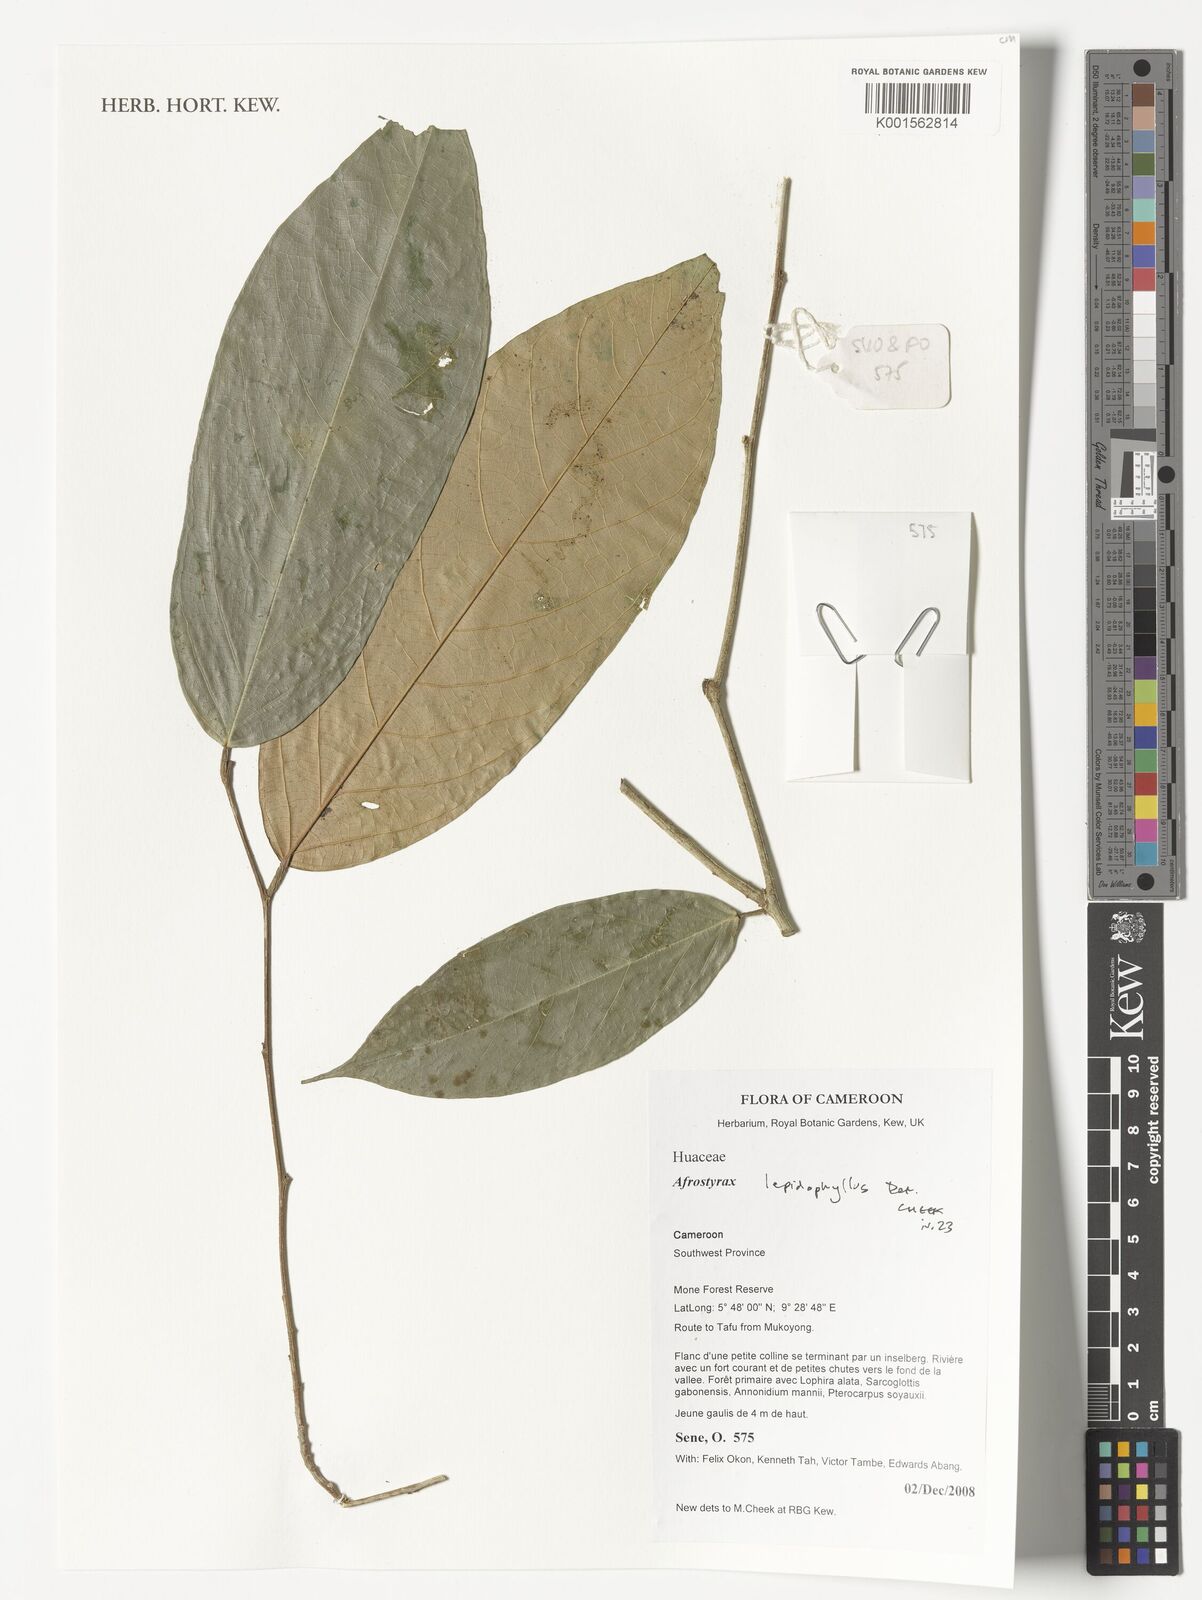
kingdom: Plantae
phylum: Tracheophyta
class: Magnoliopsida
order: Oxalidales
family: Huaceae
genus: Afrostyrax
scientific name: Afrostyrax lepidophyllus
